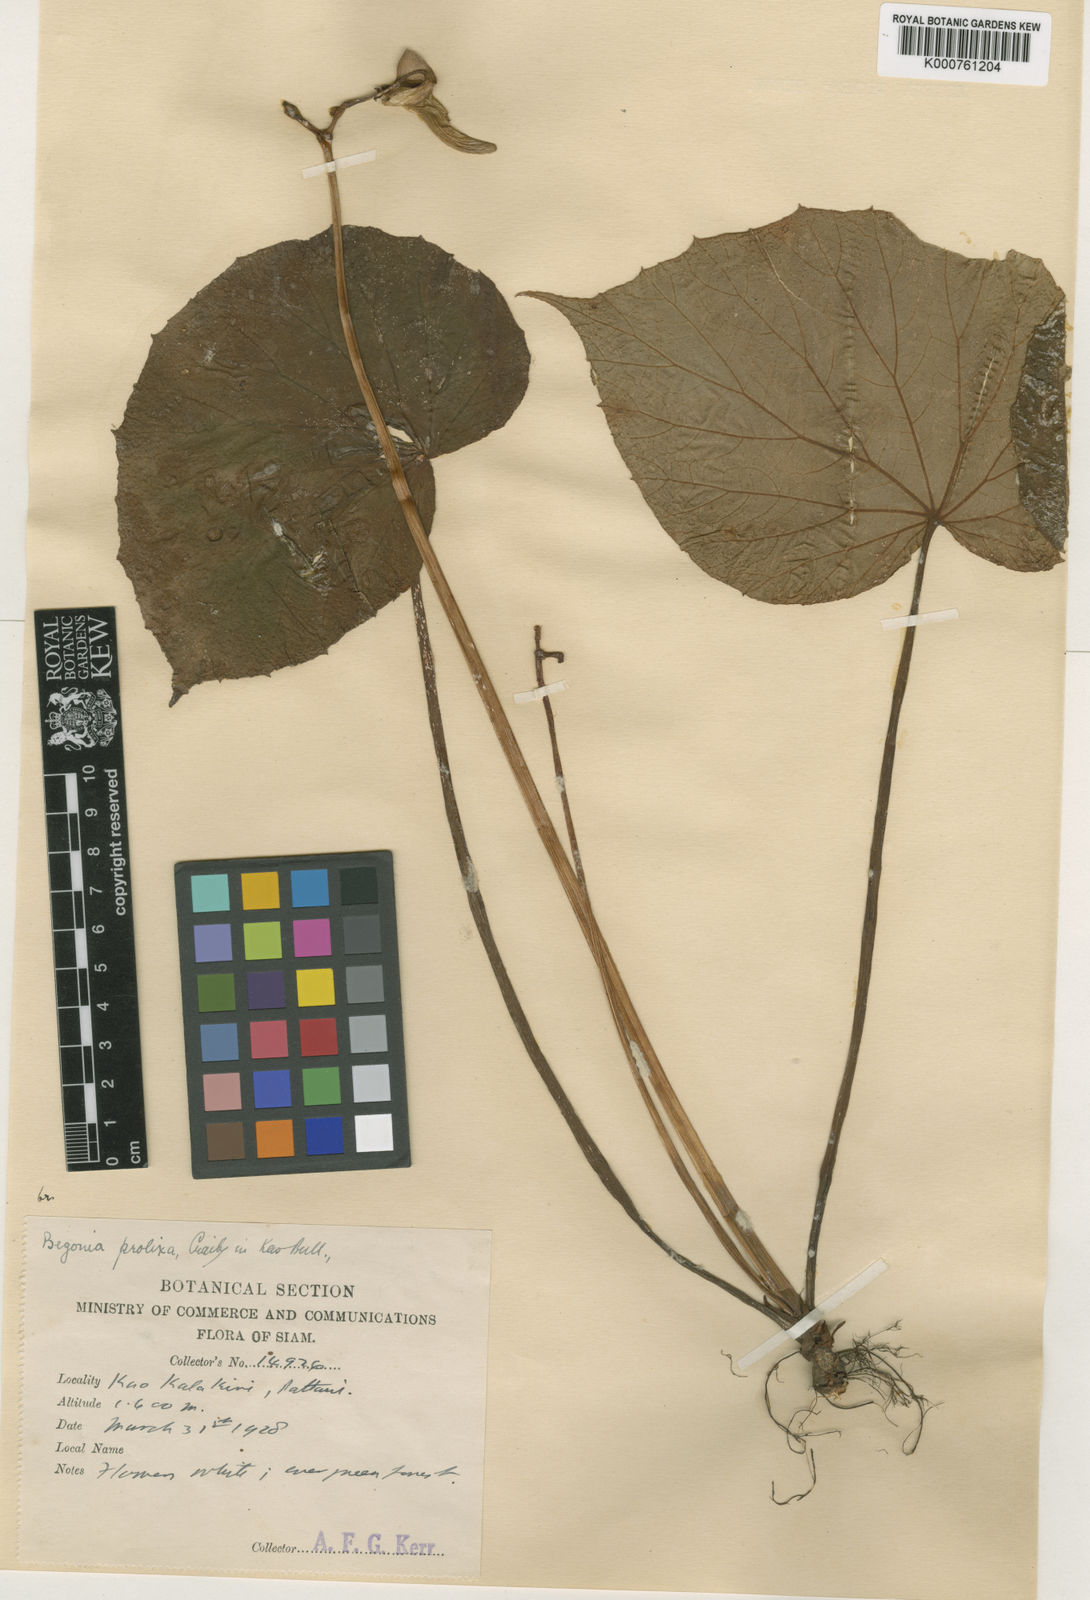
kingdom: Plantae
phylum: Tracheophyta
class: Magnoliopsida
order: Cucurbitales
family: Begoniaceae
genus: Begonia
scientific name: Begonia venusta
